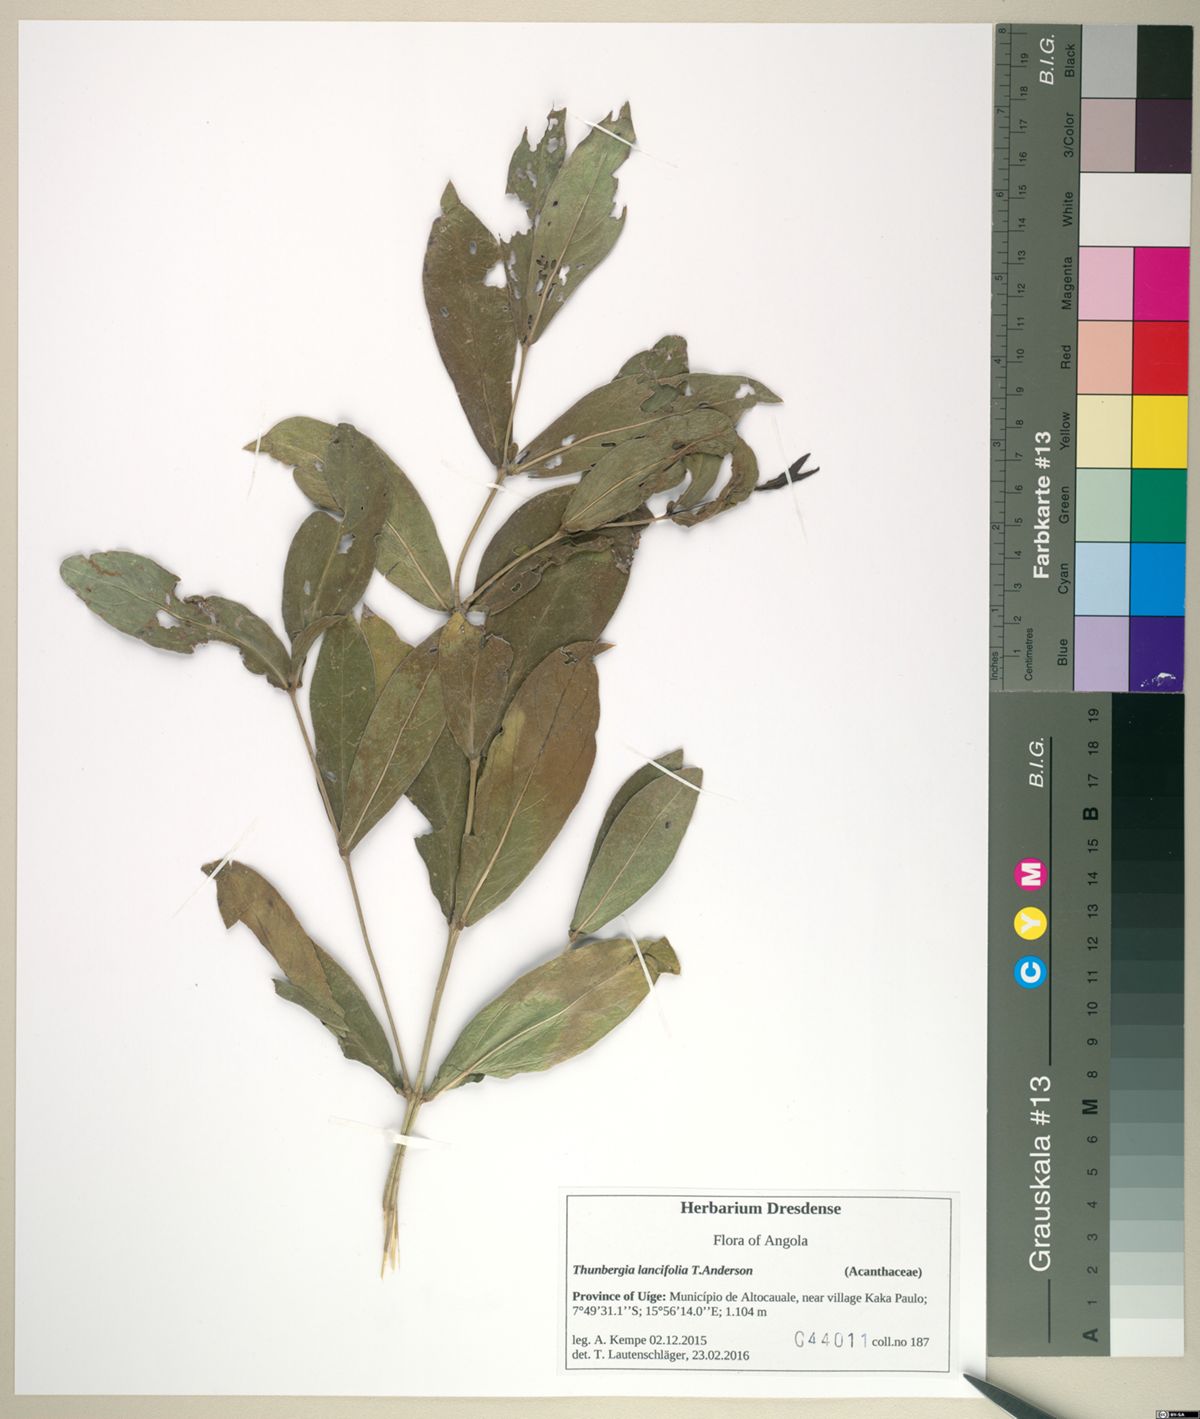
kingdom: Plantae
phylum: Tracheophyta
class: Magnoliopsida
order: Lamiales
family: Acanthaceae
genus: Thunbergia
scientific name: Thunbergia lancifolia
